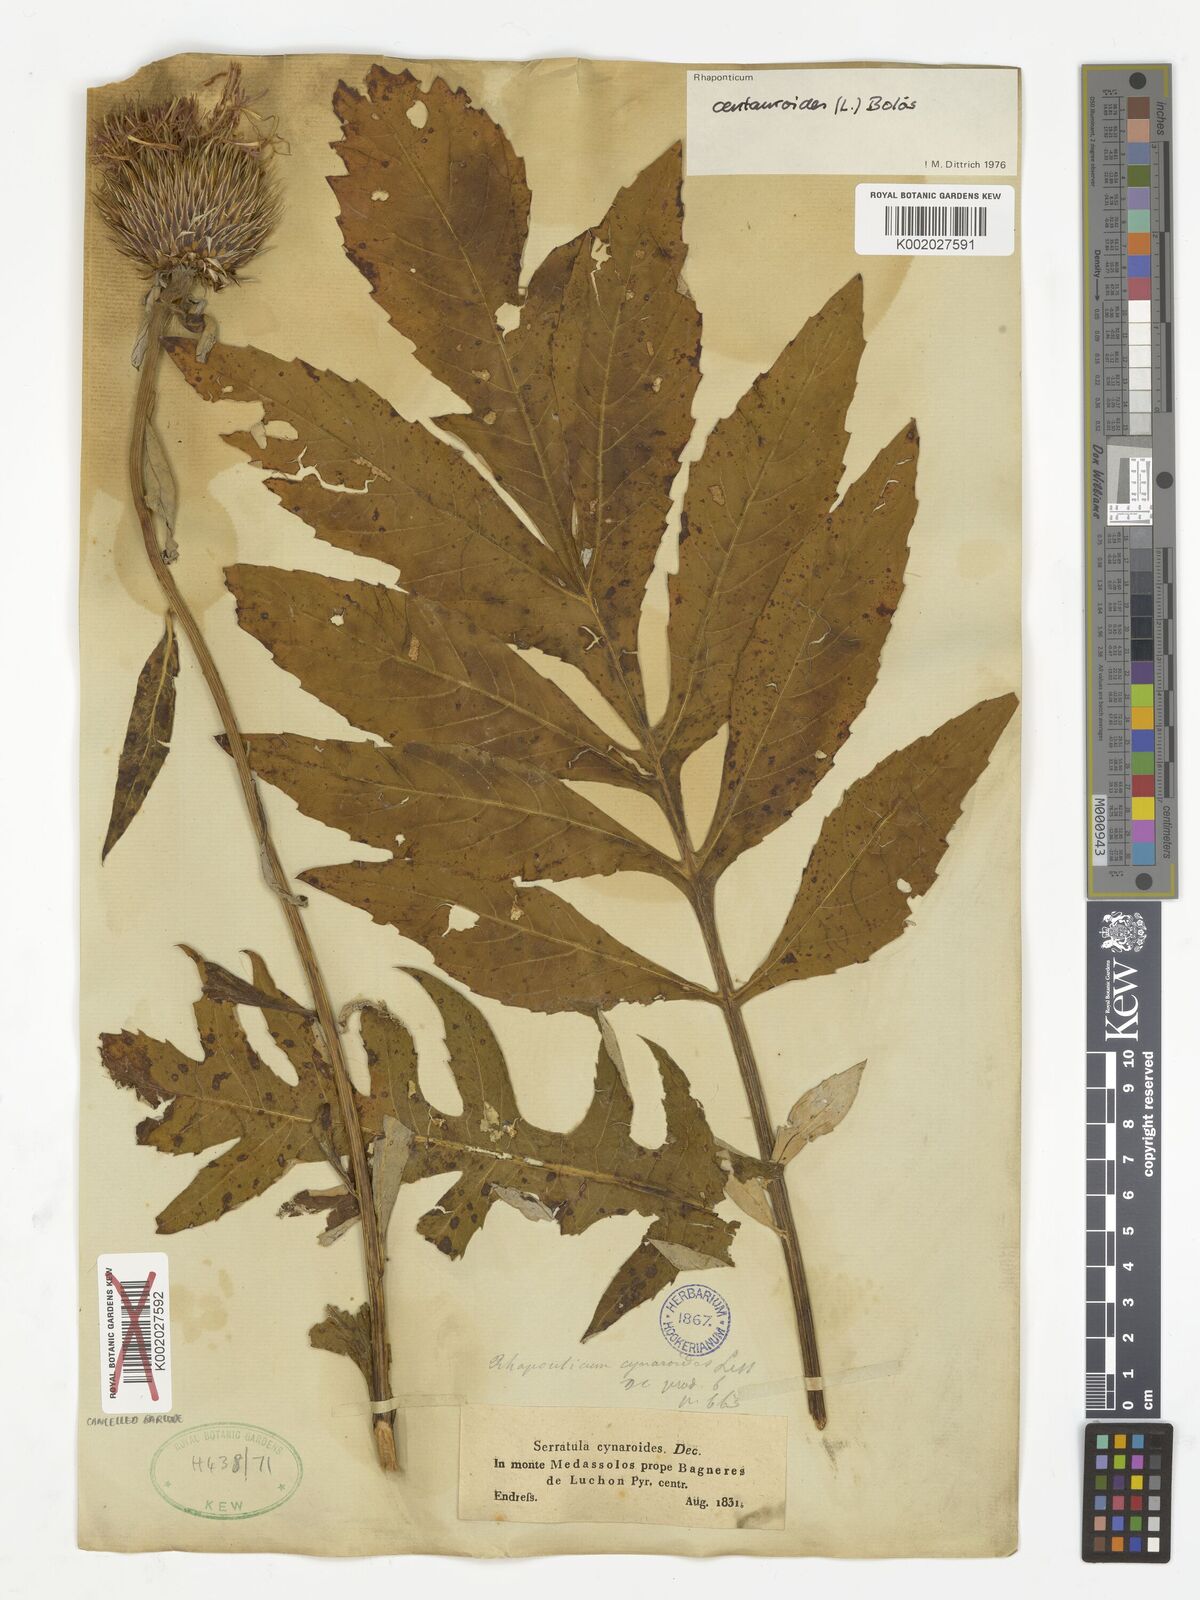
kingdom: Plantae
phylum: Tracheophyta
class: Magnoliopsida
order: Asterales
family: Asteraceae
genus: Leuzea
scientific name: Leuzea centauroides
